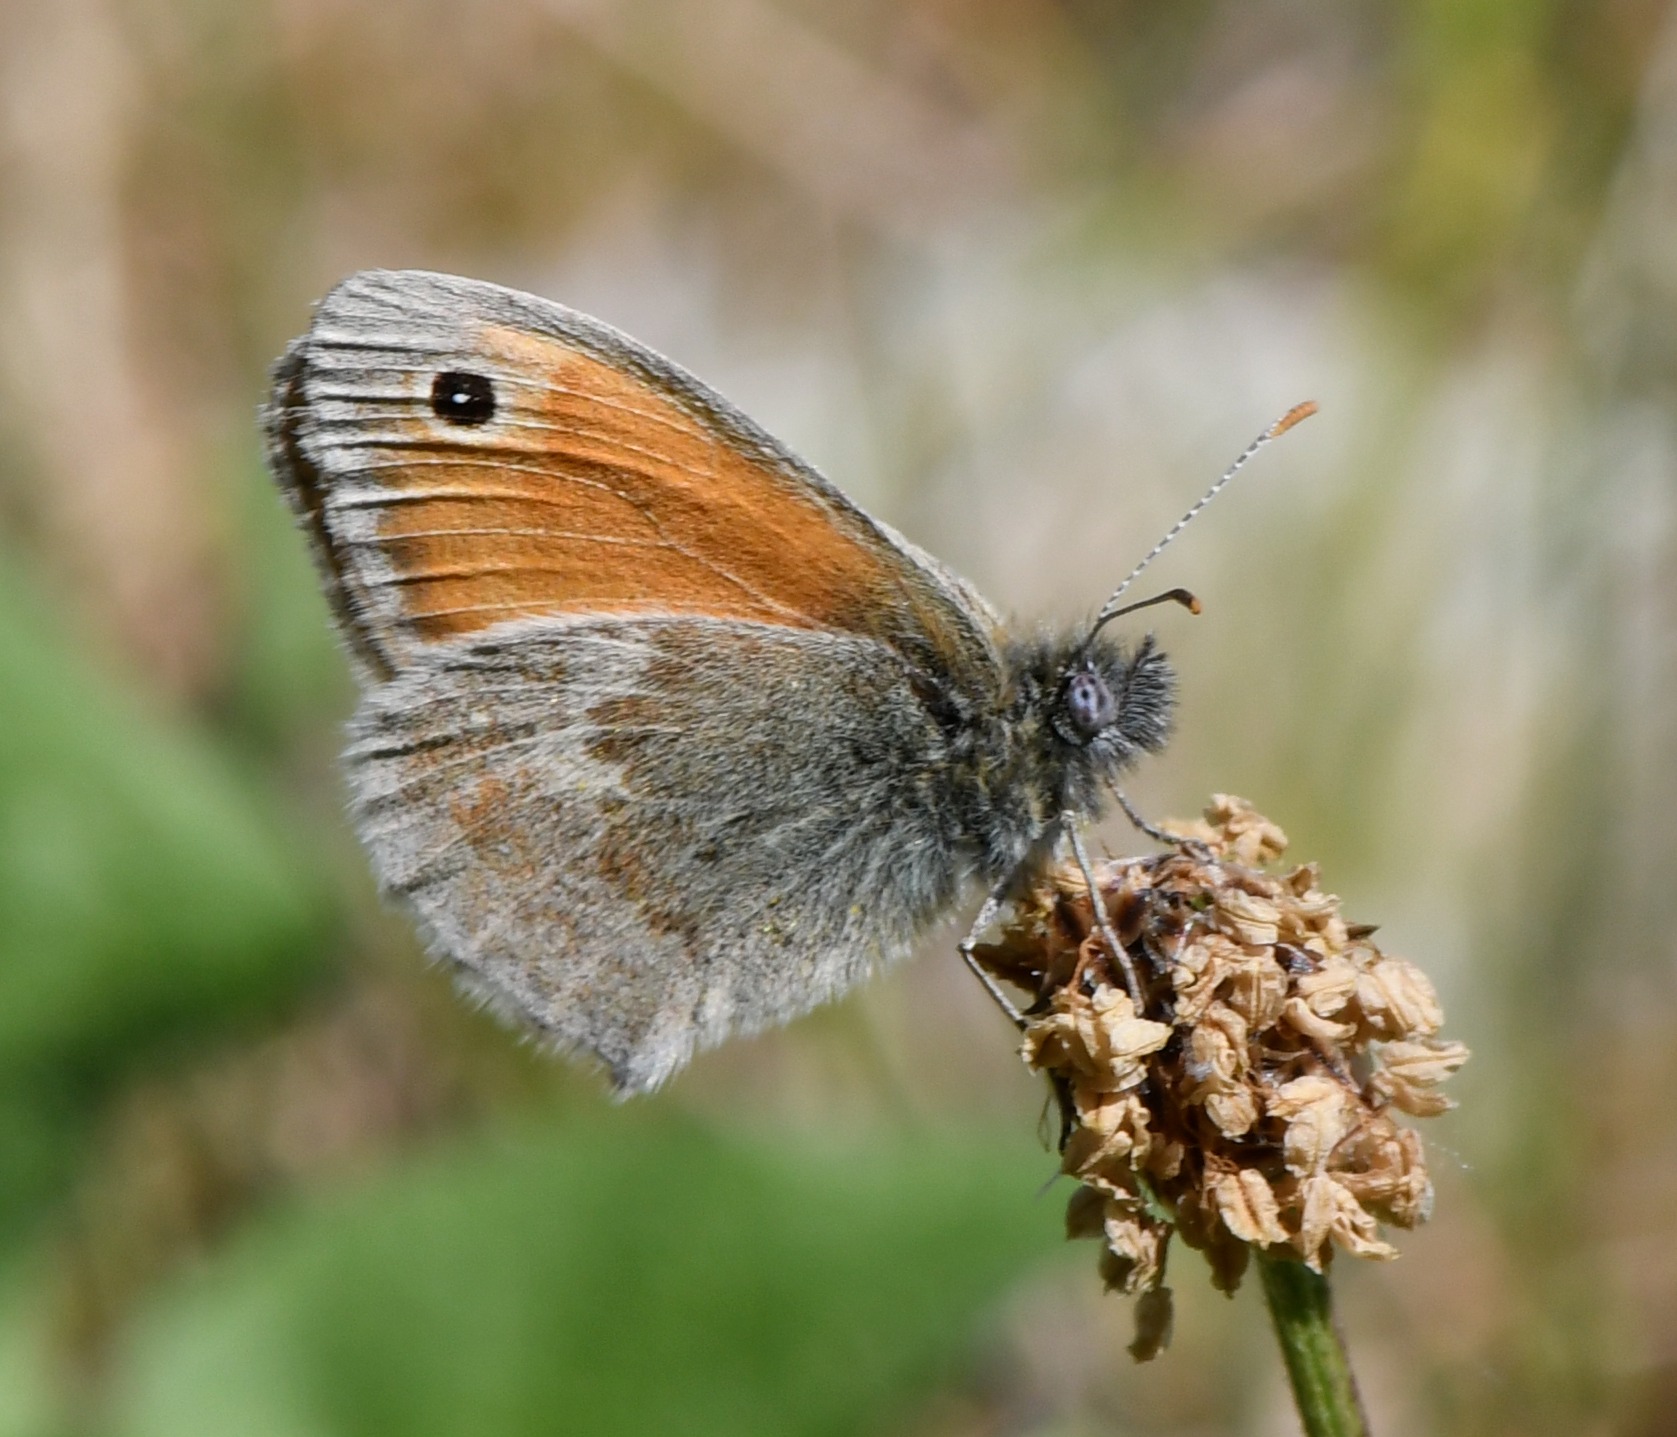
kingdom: Animalia
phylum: Arthropoda
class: Insecta
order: Lepidoptera
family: Nymphalidae
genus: Coenonympha
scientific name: Coenonympha pamphilus
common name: Okkergul randøje
